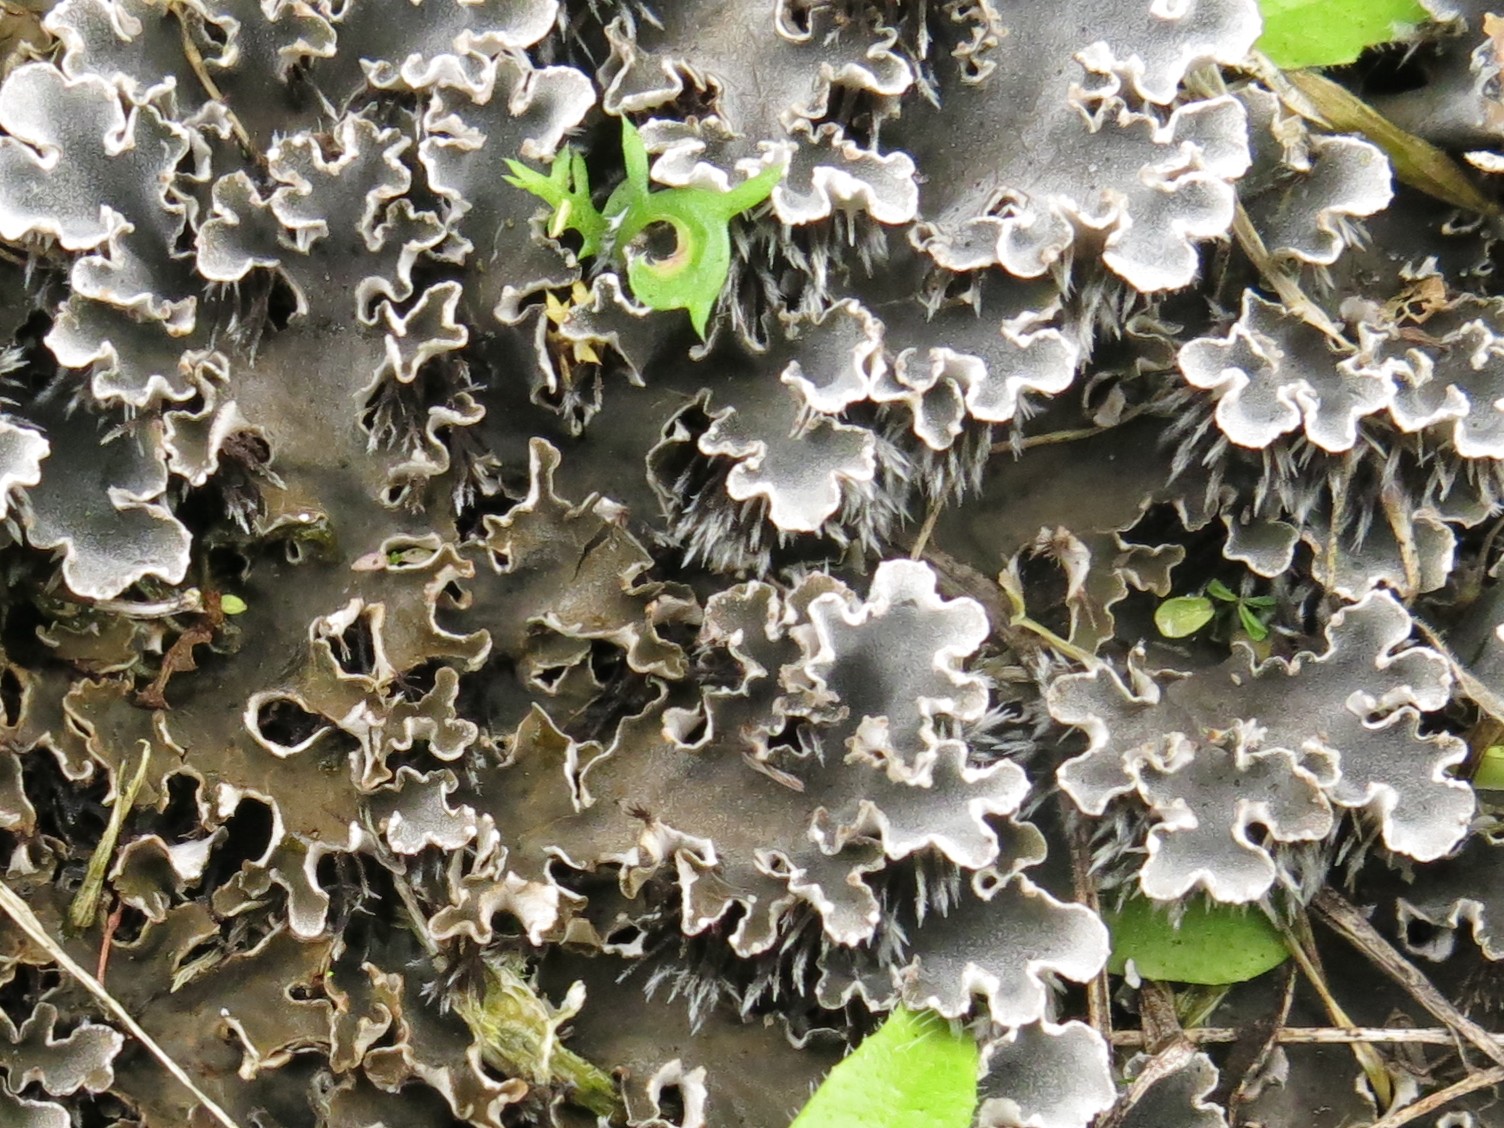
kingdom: Fungi
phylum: Ascomycota
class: Lecanoromycetes
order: Peltigerales
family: Peltigeraceae
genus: Peltigera
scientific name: Peltigera rufescens
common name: brun skjoldlav
